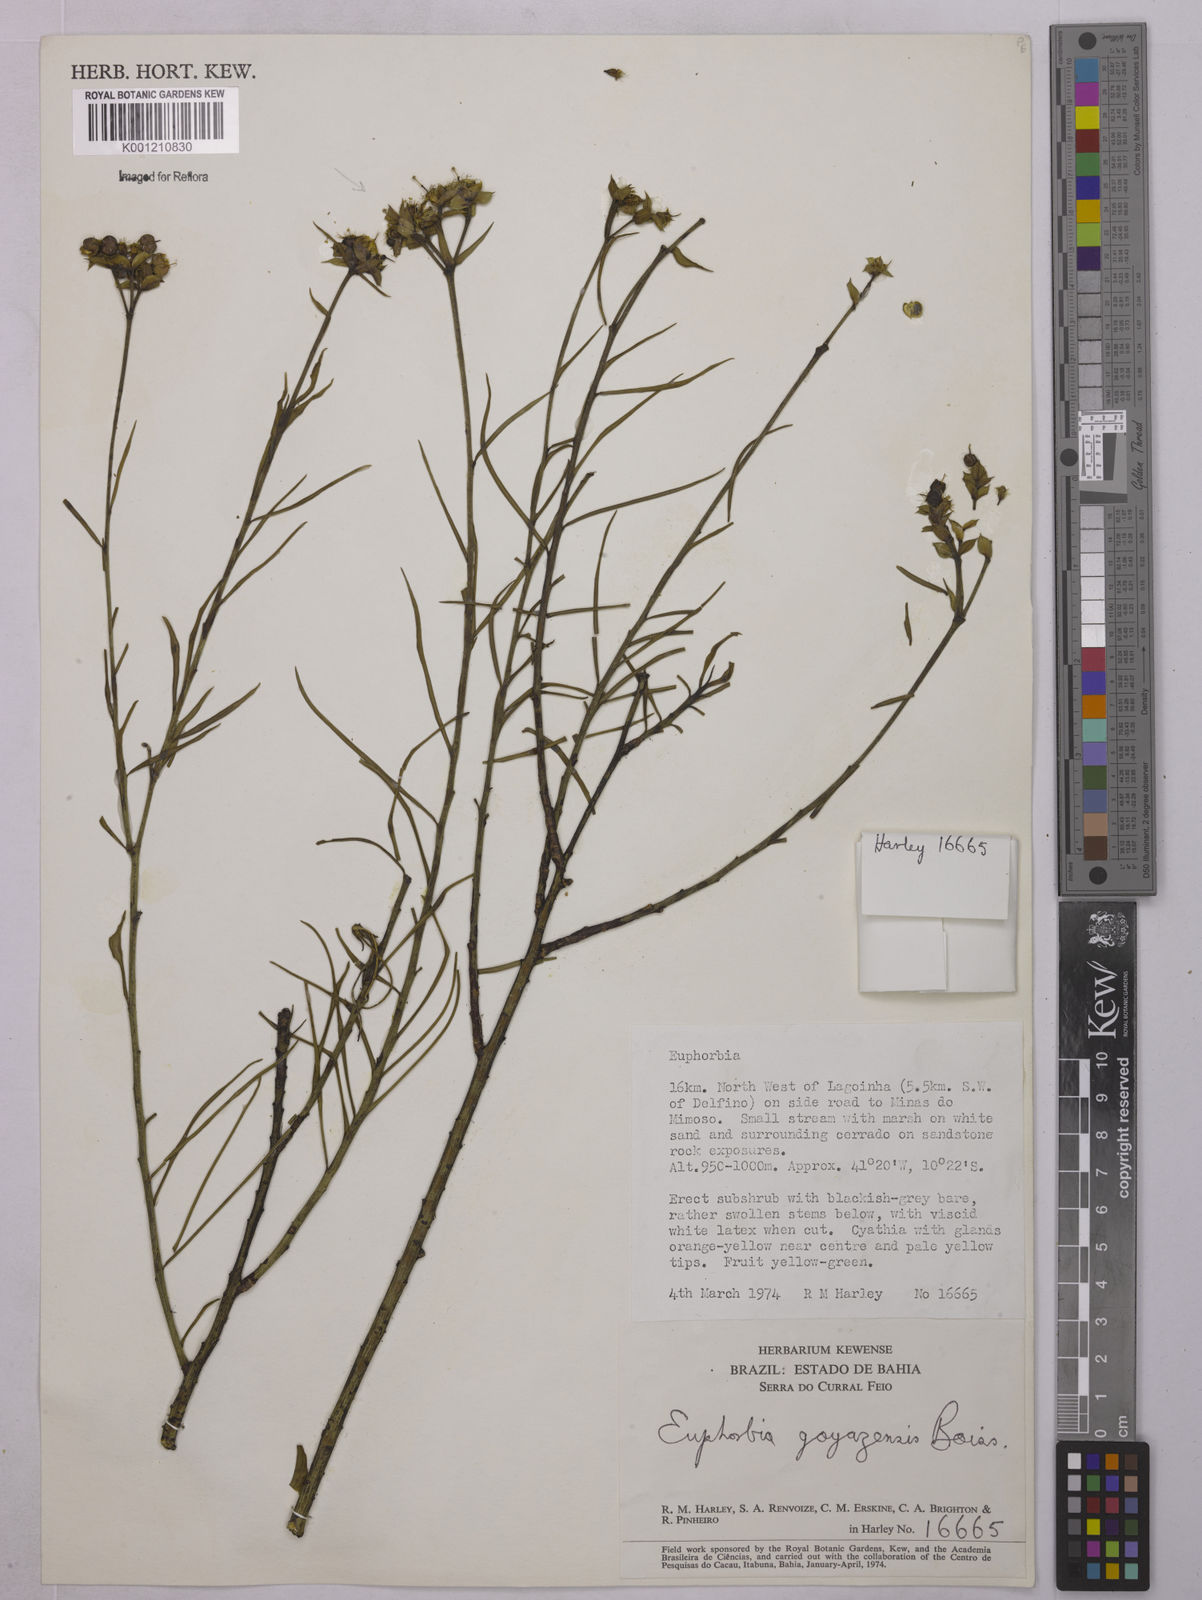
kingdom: Plantae
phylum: Tracheophyta
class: Magnoliopsida
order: Malpighiales
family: Euphorbiaceae
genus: Euphorbia
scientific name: Euphorbia goyazensis
